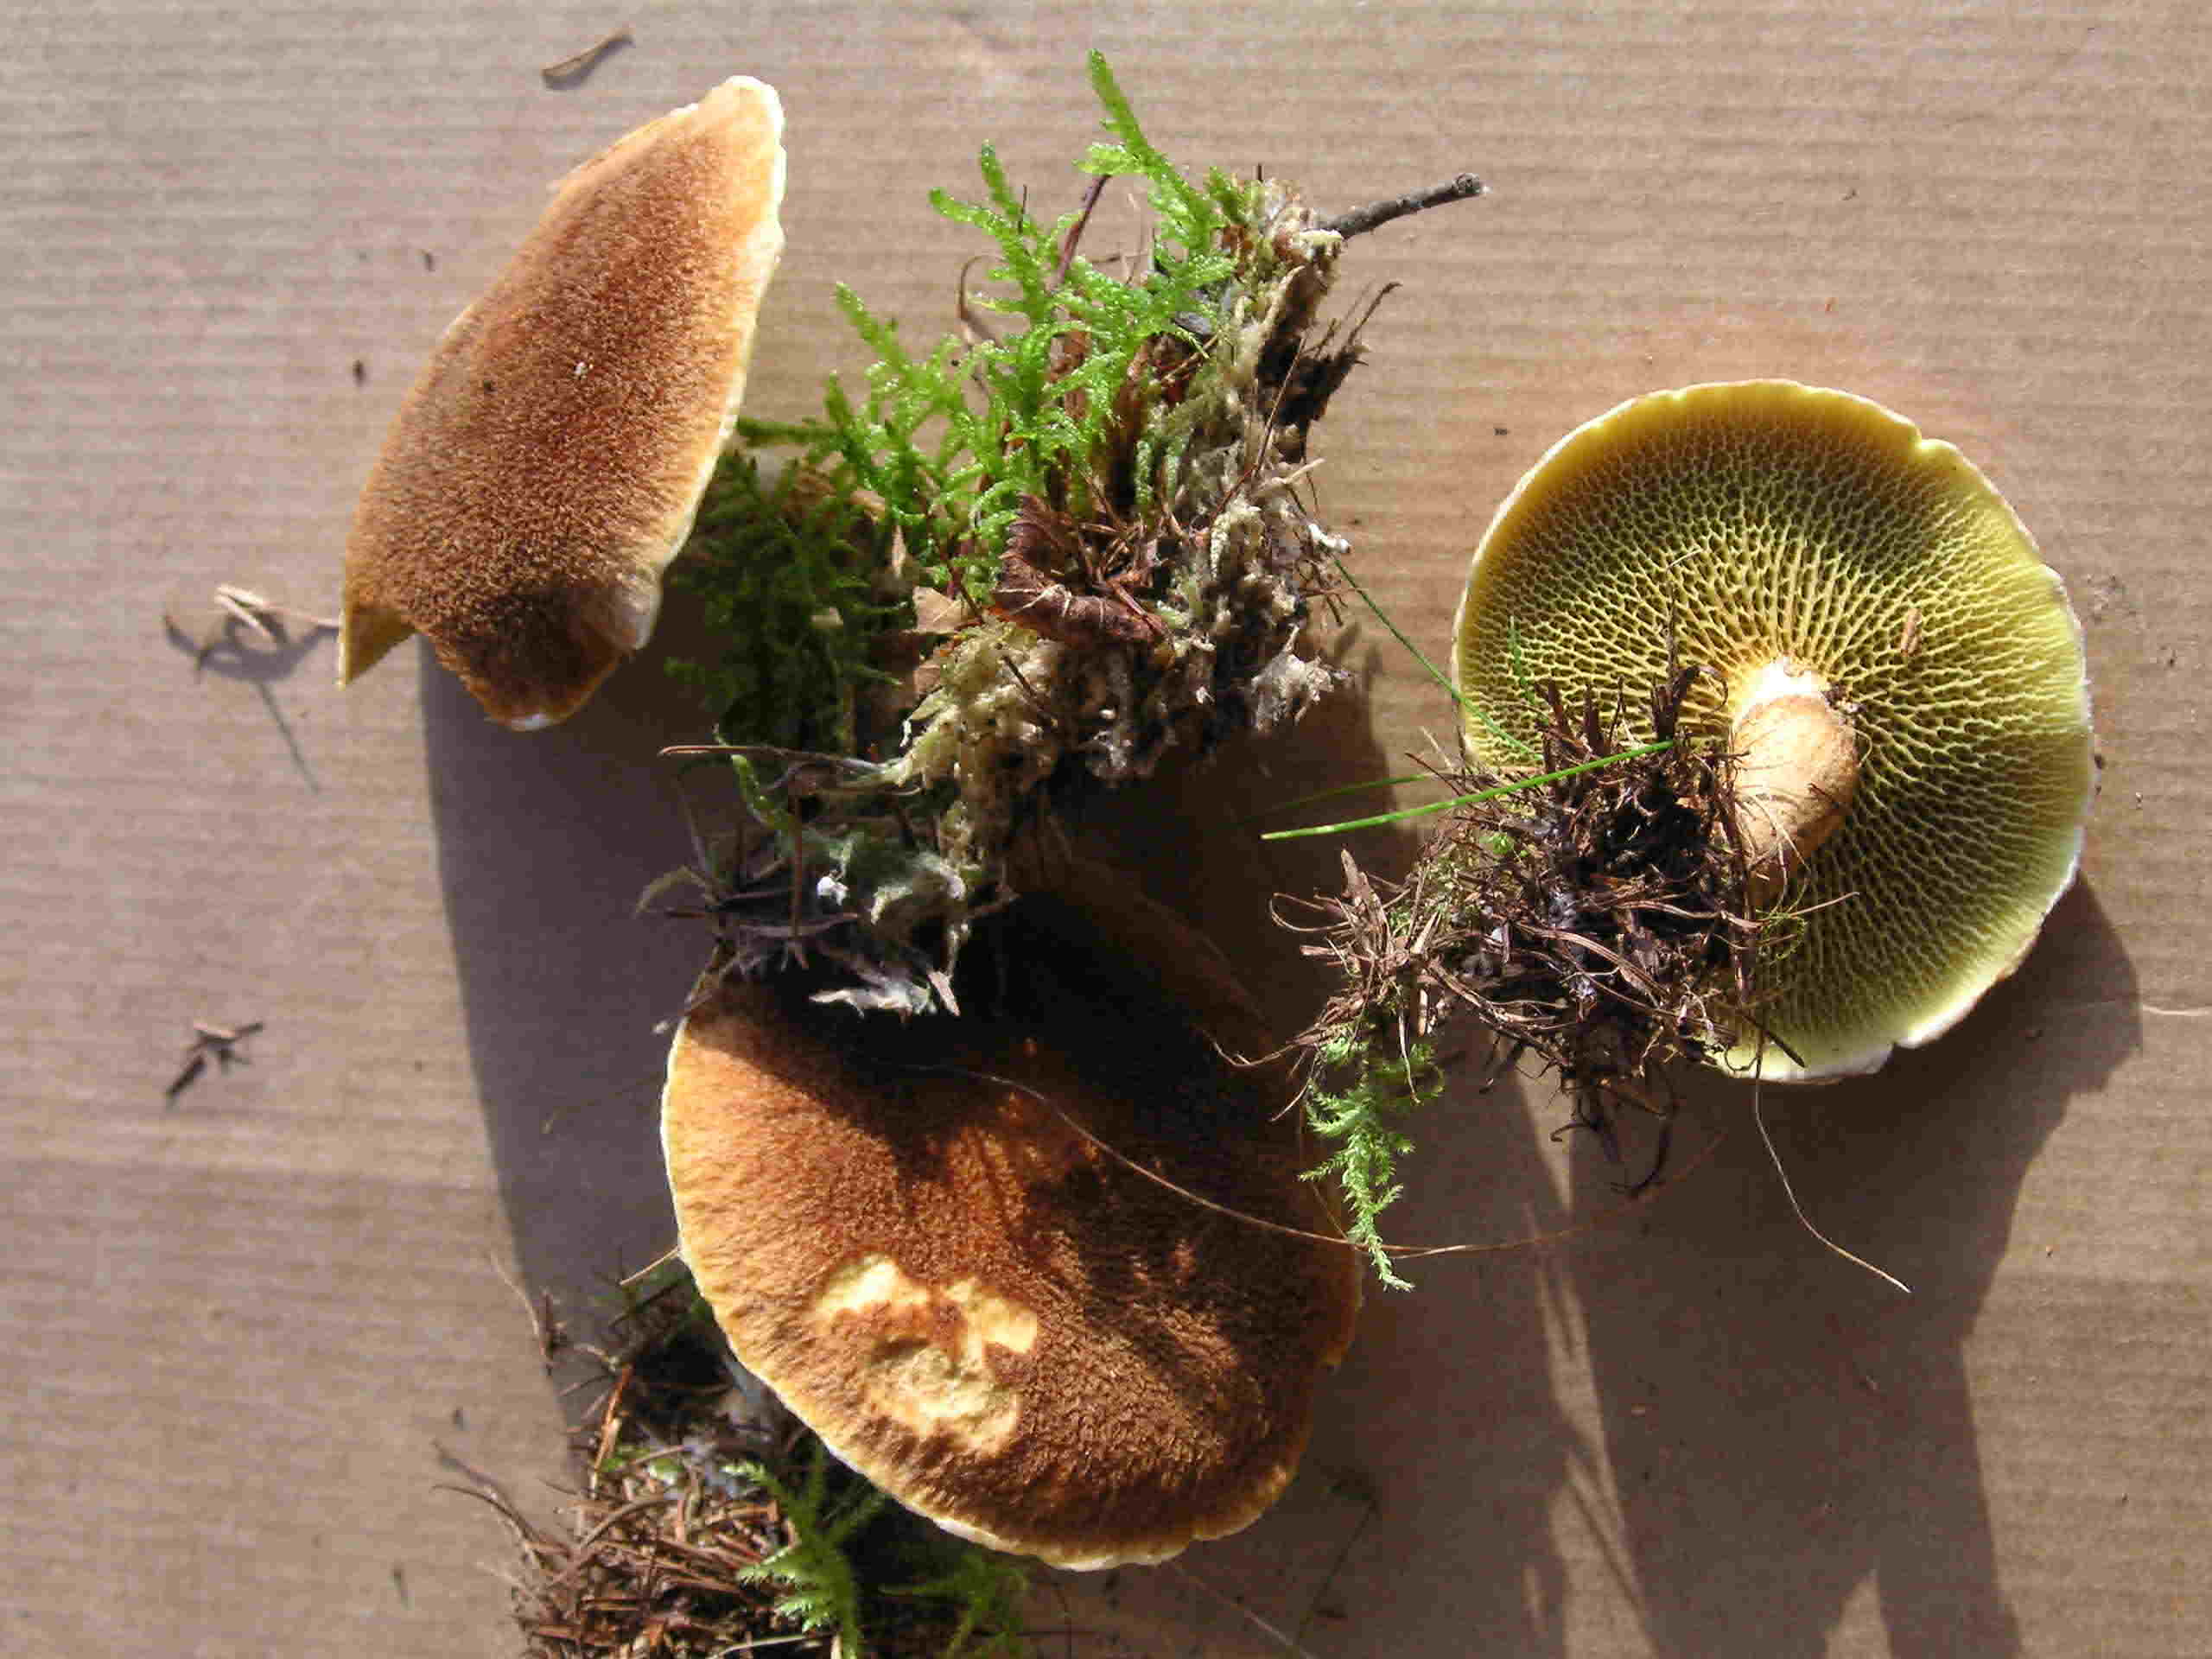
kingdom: Fungi
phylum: Basidiomycota
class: Agaricomycetes
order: Boletales
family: Suillaceae
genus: Suillus
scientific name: Suillus cavipes
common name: hulstokket slimrørhat
